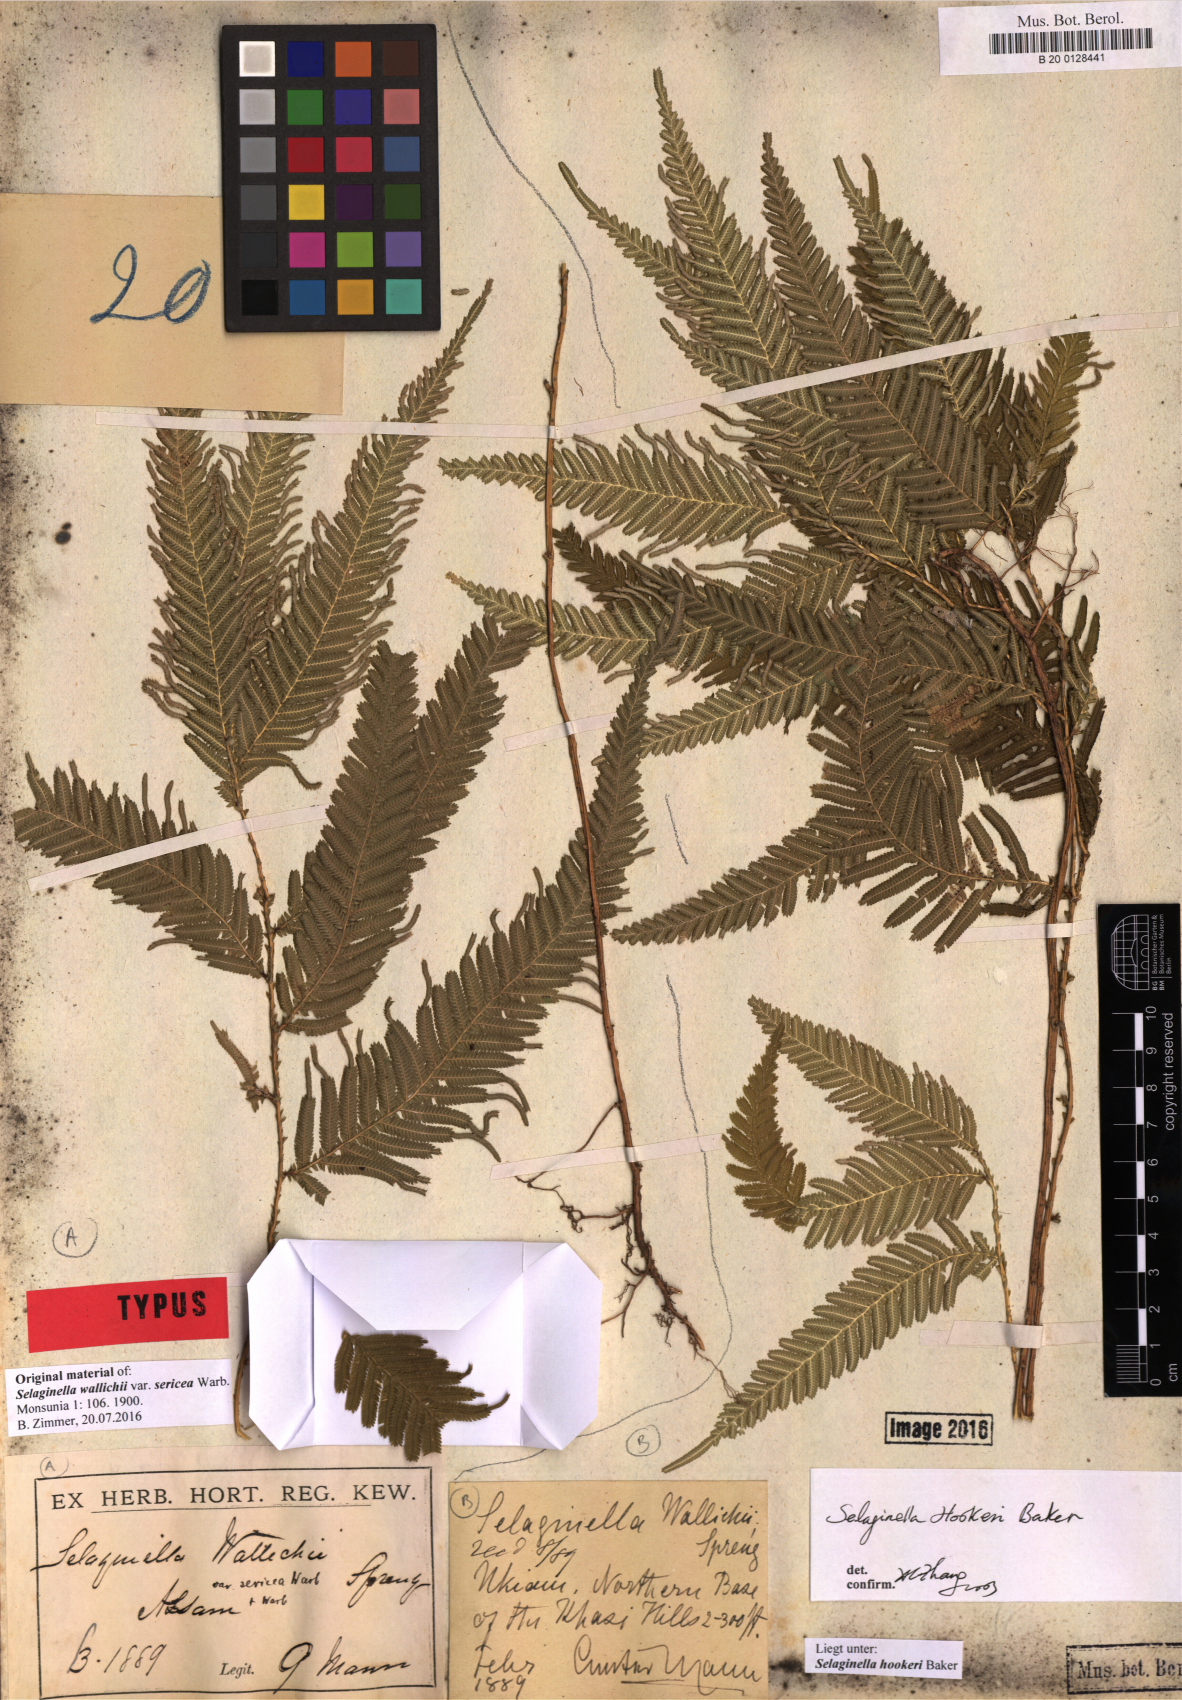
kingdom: Plantae
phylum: Tracheophyta
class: Lycopodiopsida
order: Selaginellales
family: Selaginellaceae
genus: Selaginella
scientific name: Selaginella inaequalifolia
